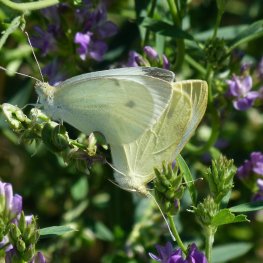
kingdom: Animalia
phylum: Arthropoda
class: Insecta
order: Lepidoptera
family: Pieridae
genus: Pieris
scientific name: Pieris rapae
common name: Cabbage White
